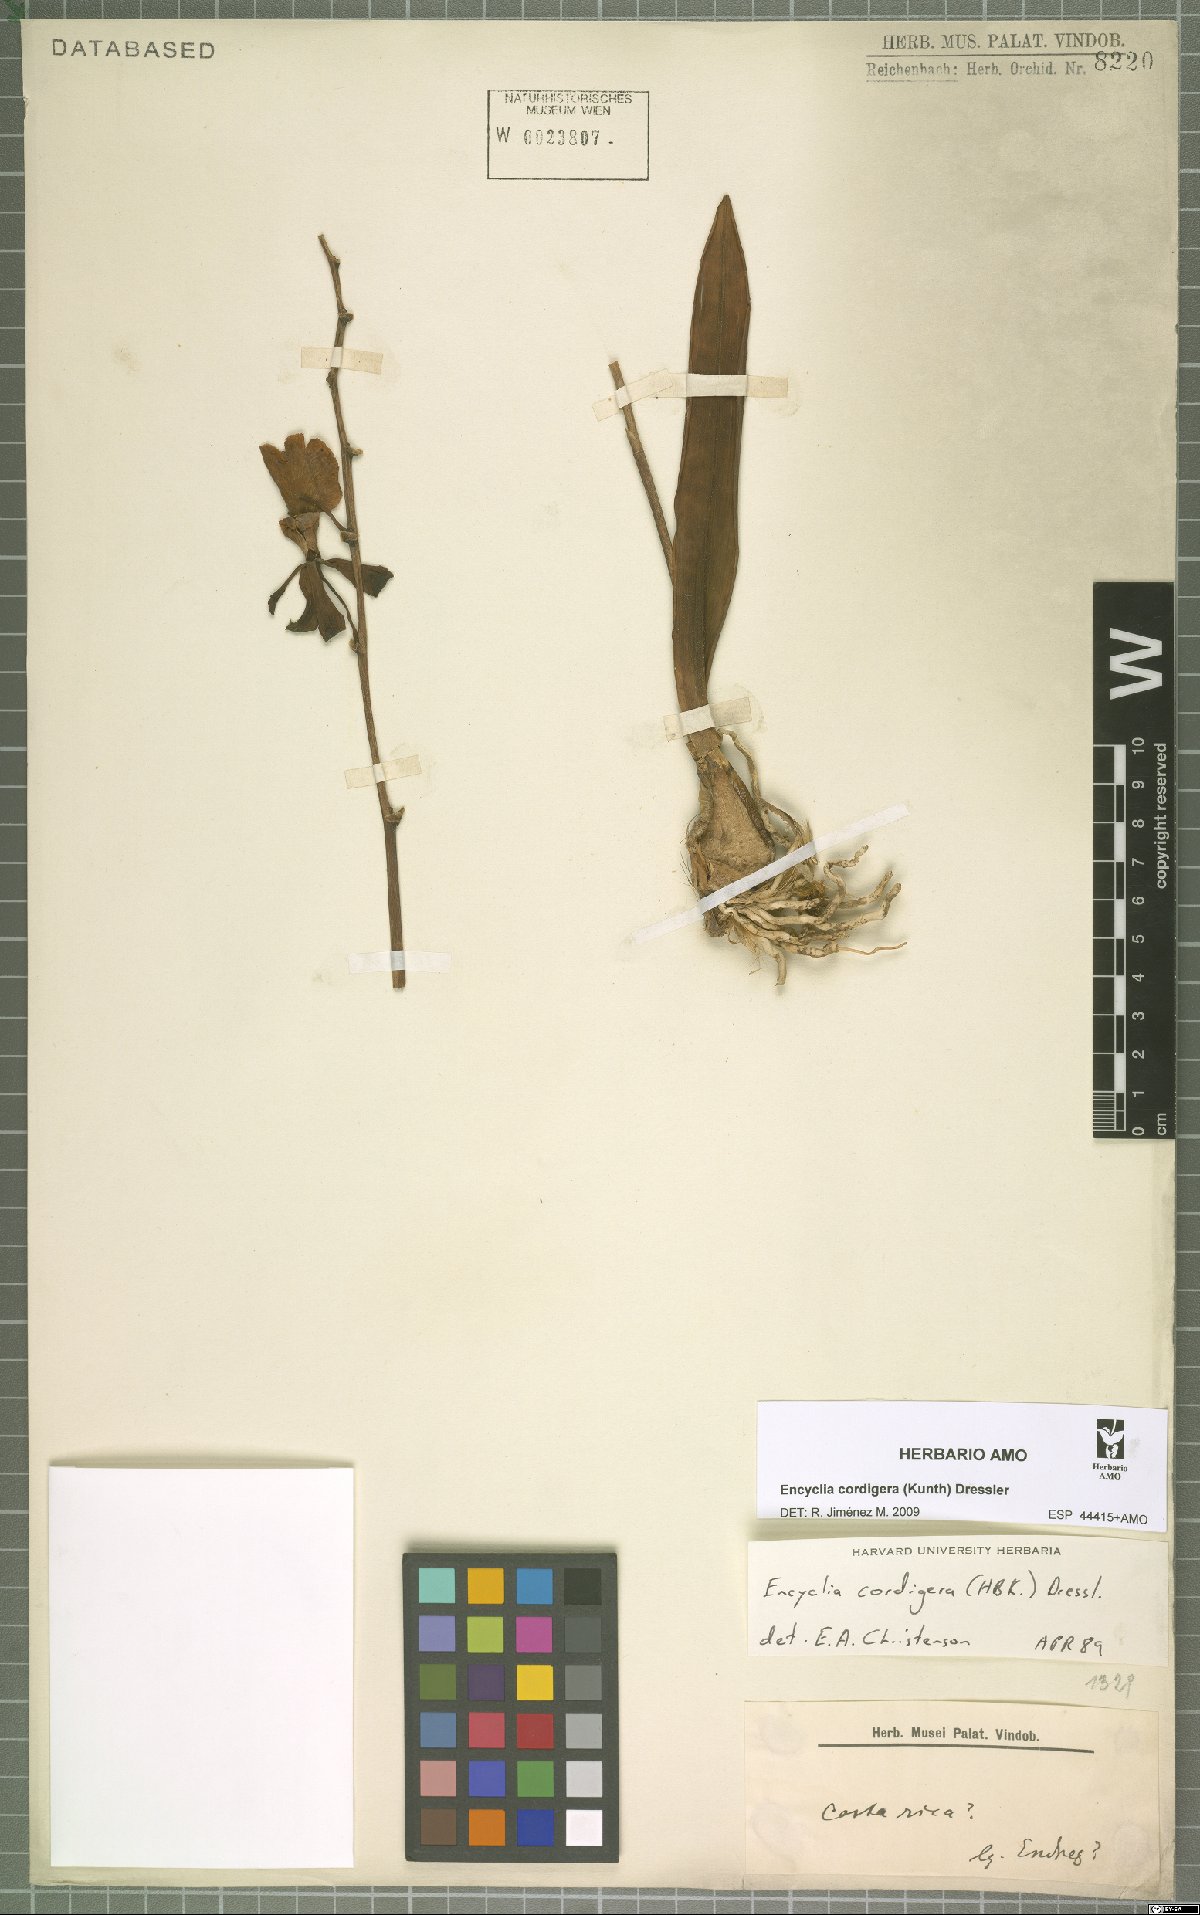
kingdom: Plantae
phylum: Tracheophyta
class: Liliopsida
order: Asparagales
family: Orchidaceae
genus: Encyclia
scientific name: Encyclia cordigera
